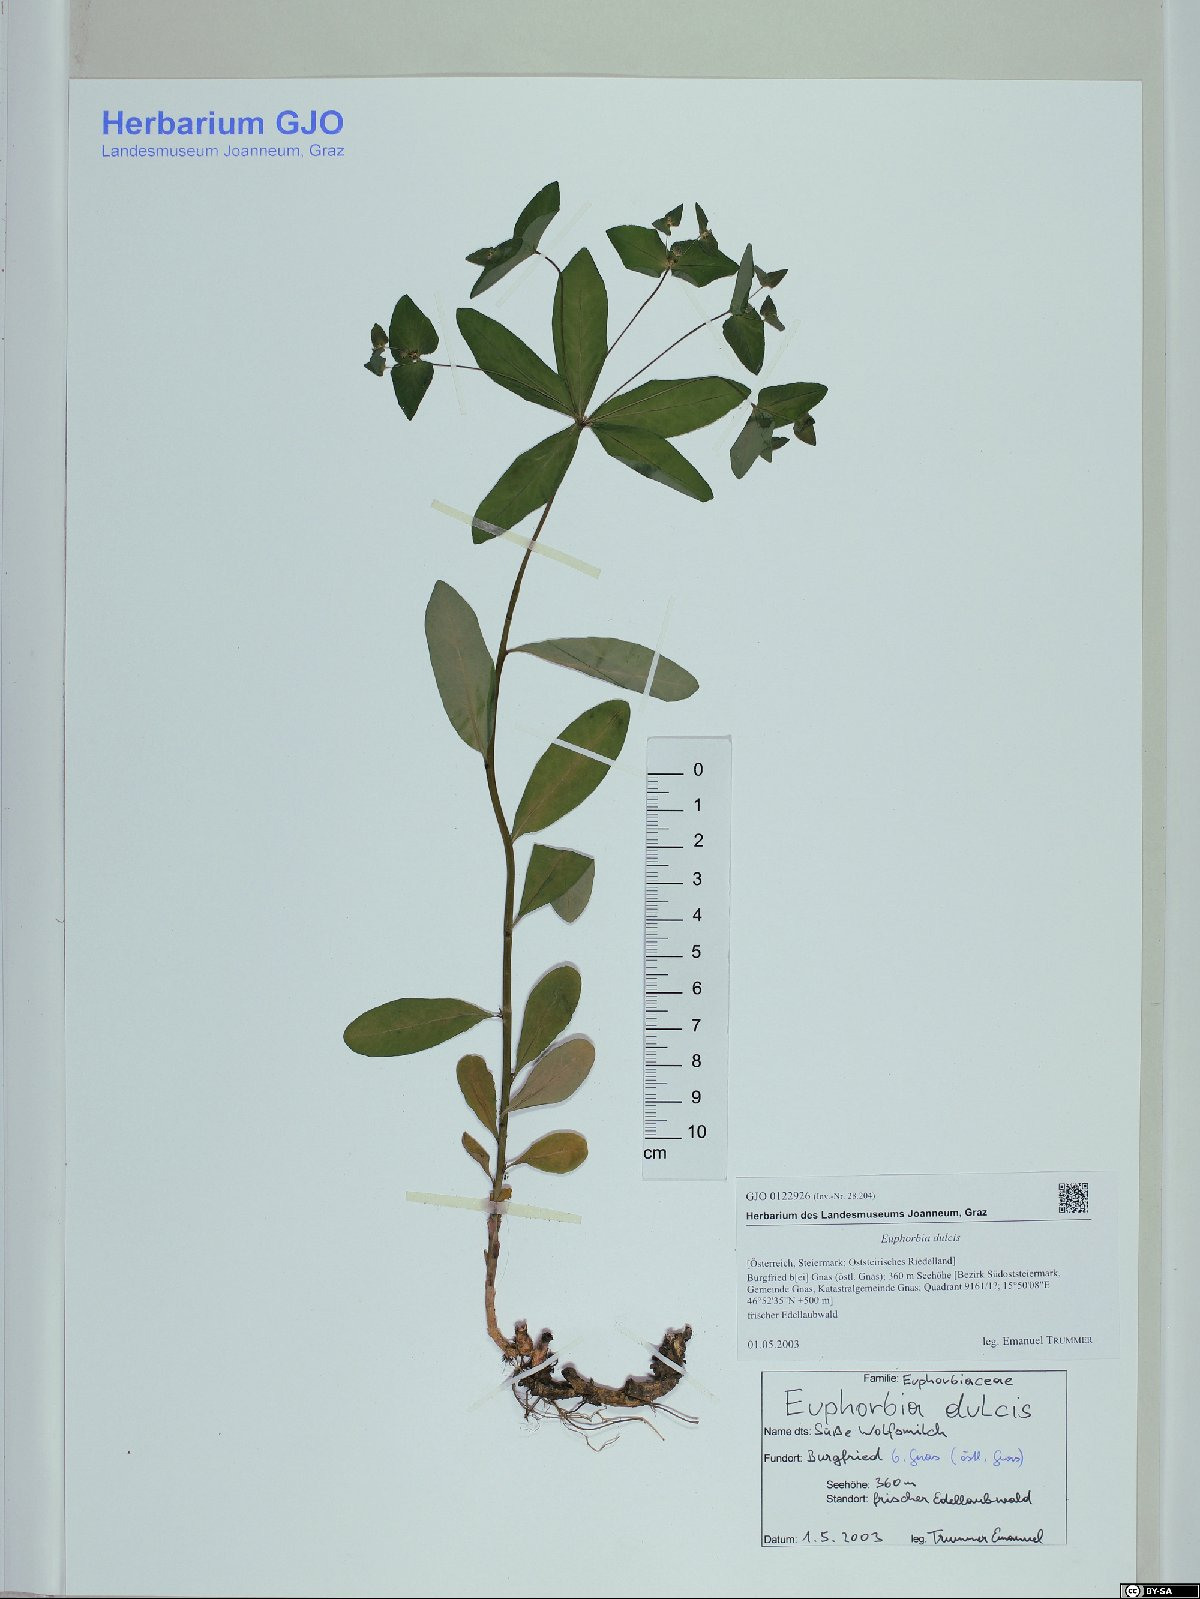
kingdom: Plantae
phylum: Tracheophyta
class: Magnoliopsida
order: Malpighiales
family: Euphorbiaceae
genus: Euphorbia
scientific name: Euphorbia dulcis
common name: Sweet spurge
